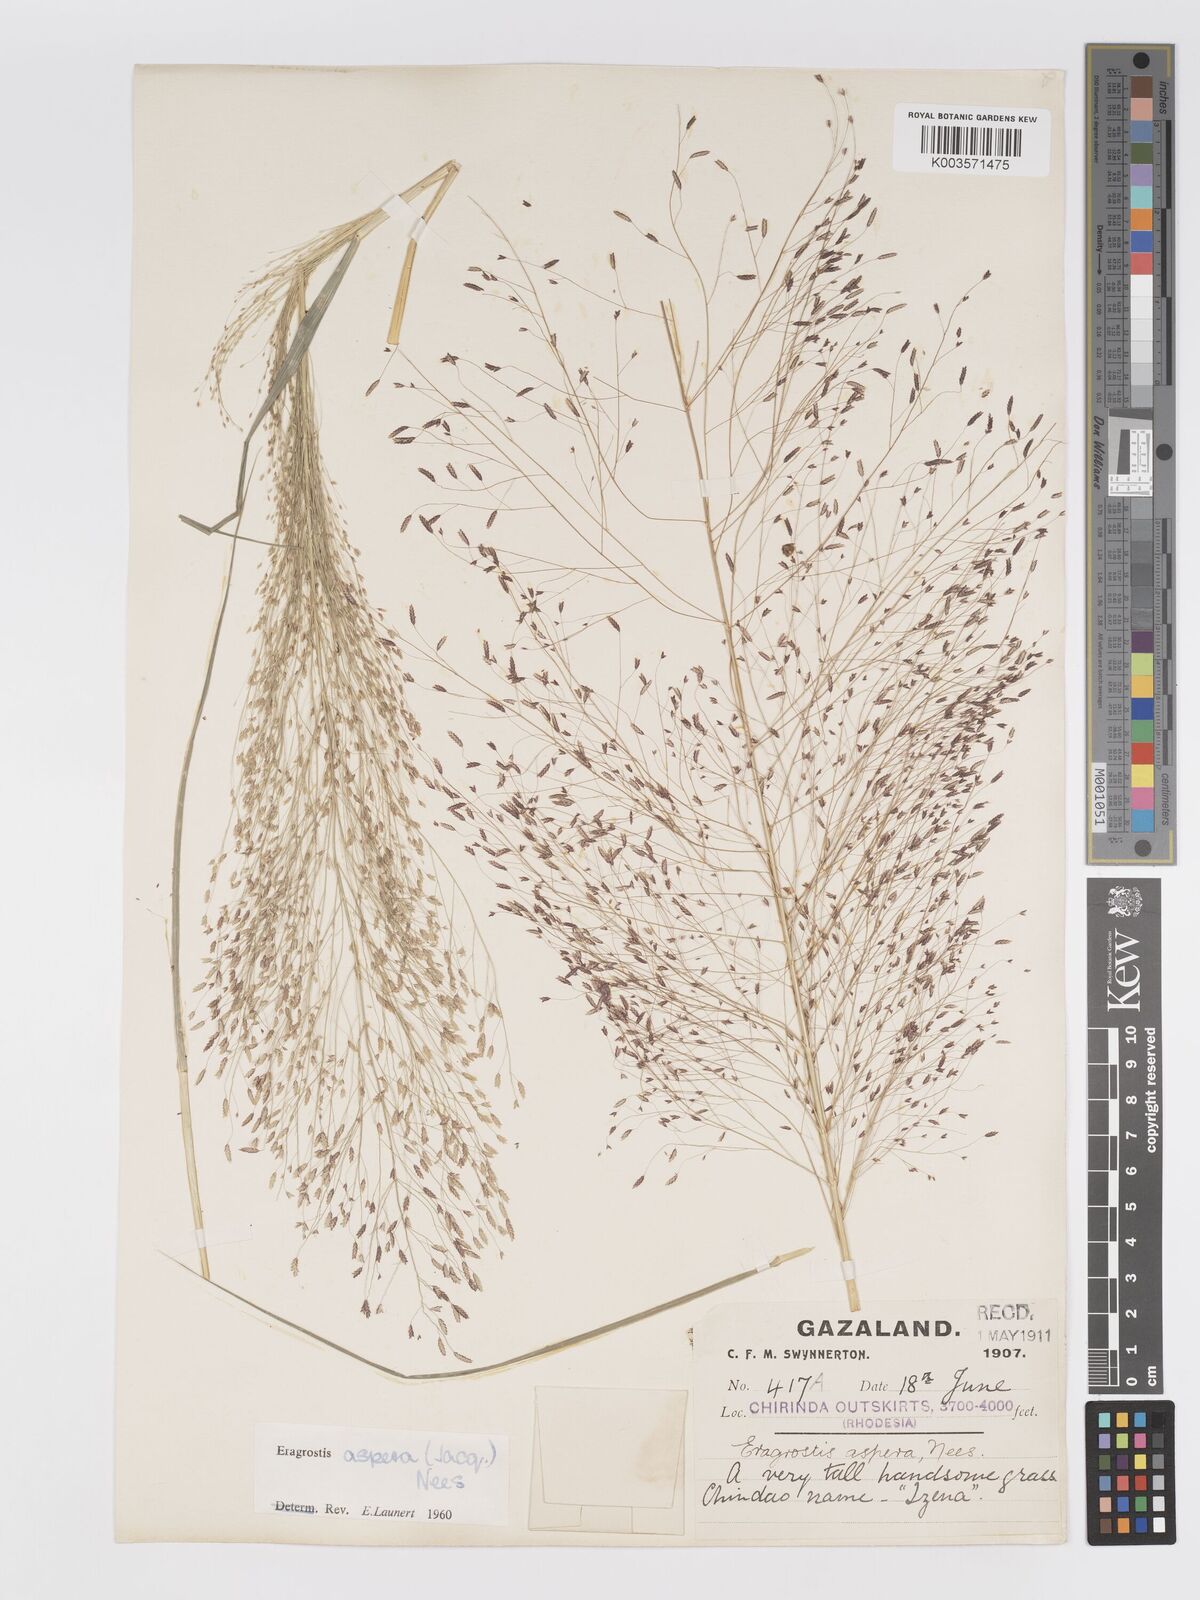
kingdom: Plantae
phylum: Tracheophyta
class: Liliopsida
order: Poales
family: Poaceae
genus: Eragrostis
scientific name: Eragrostis aspera
